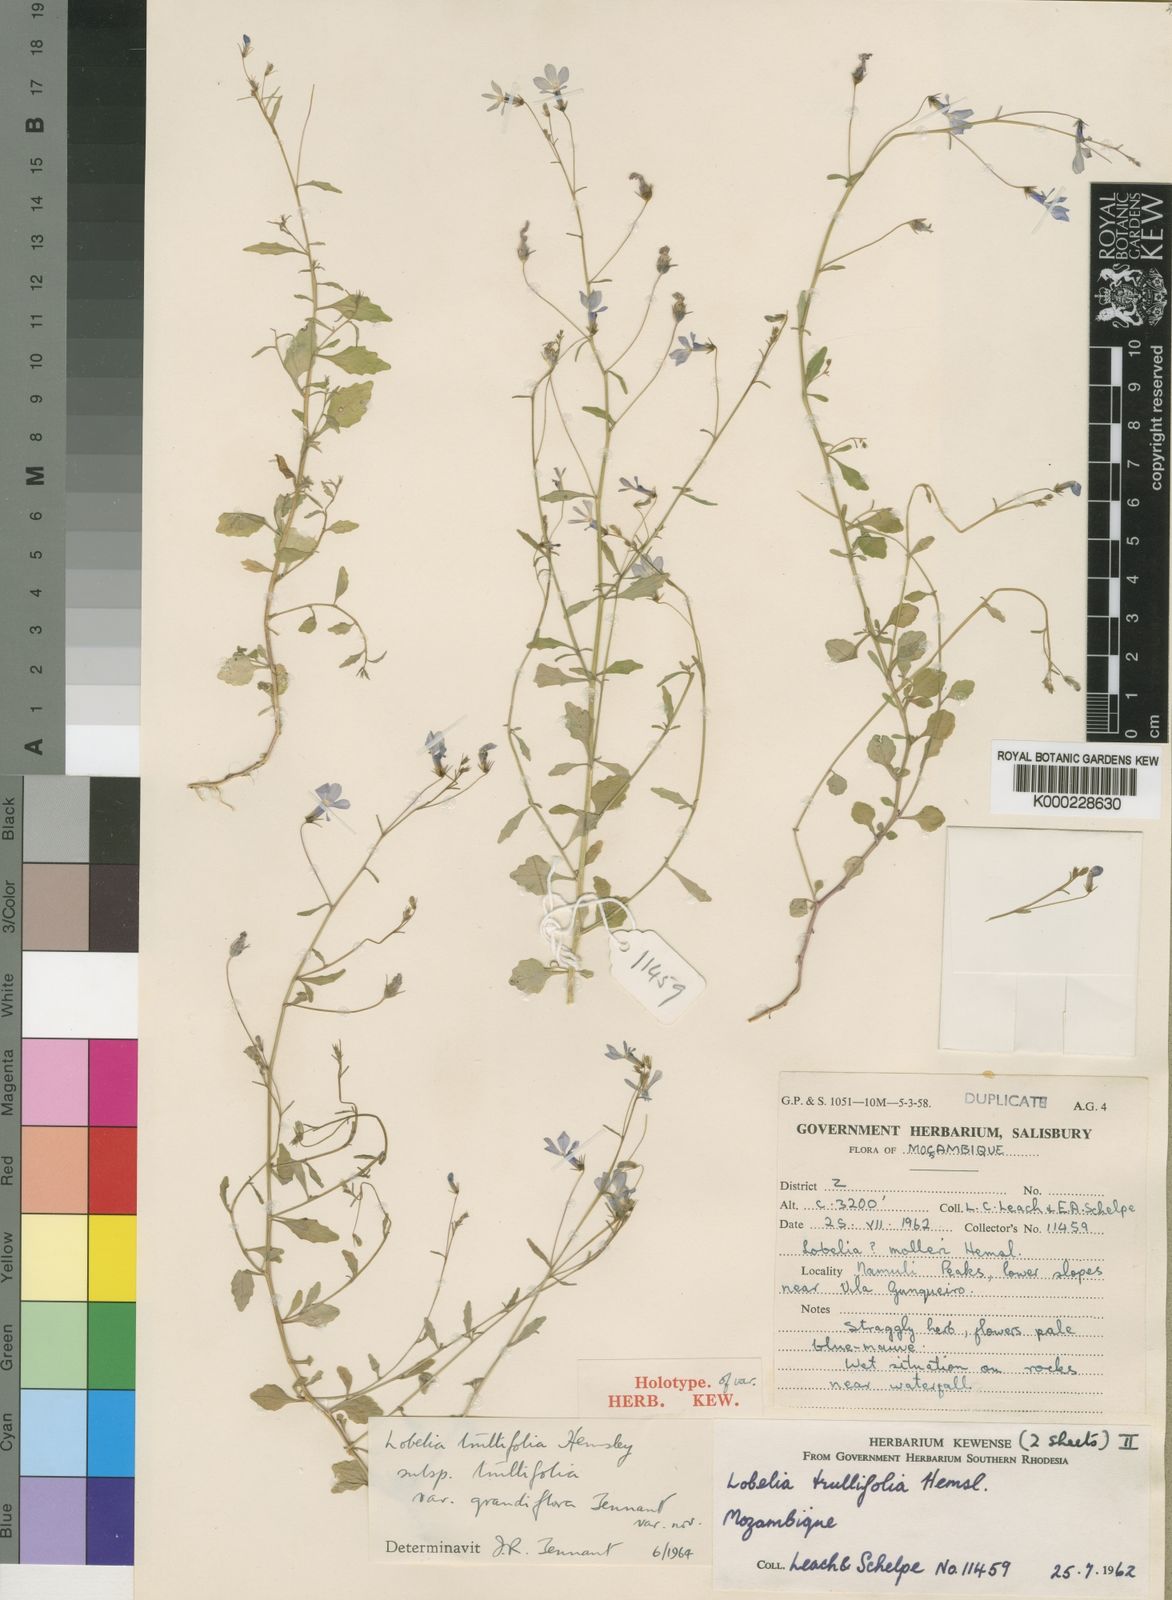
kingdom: Plantae
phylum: Tracheophyta
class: Magnoliopsida
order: Asterales
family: Campanulaceae
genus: Lobelia
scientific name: Lobelia trullifolia
